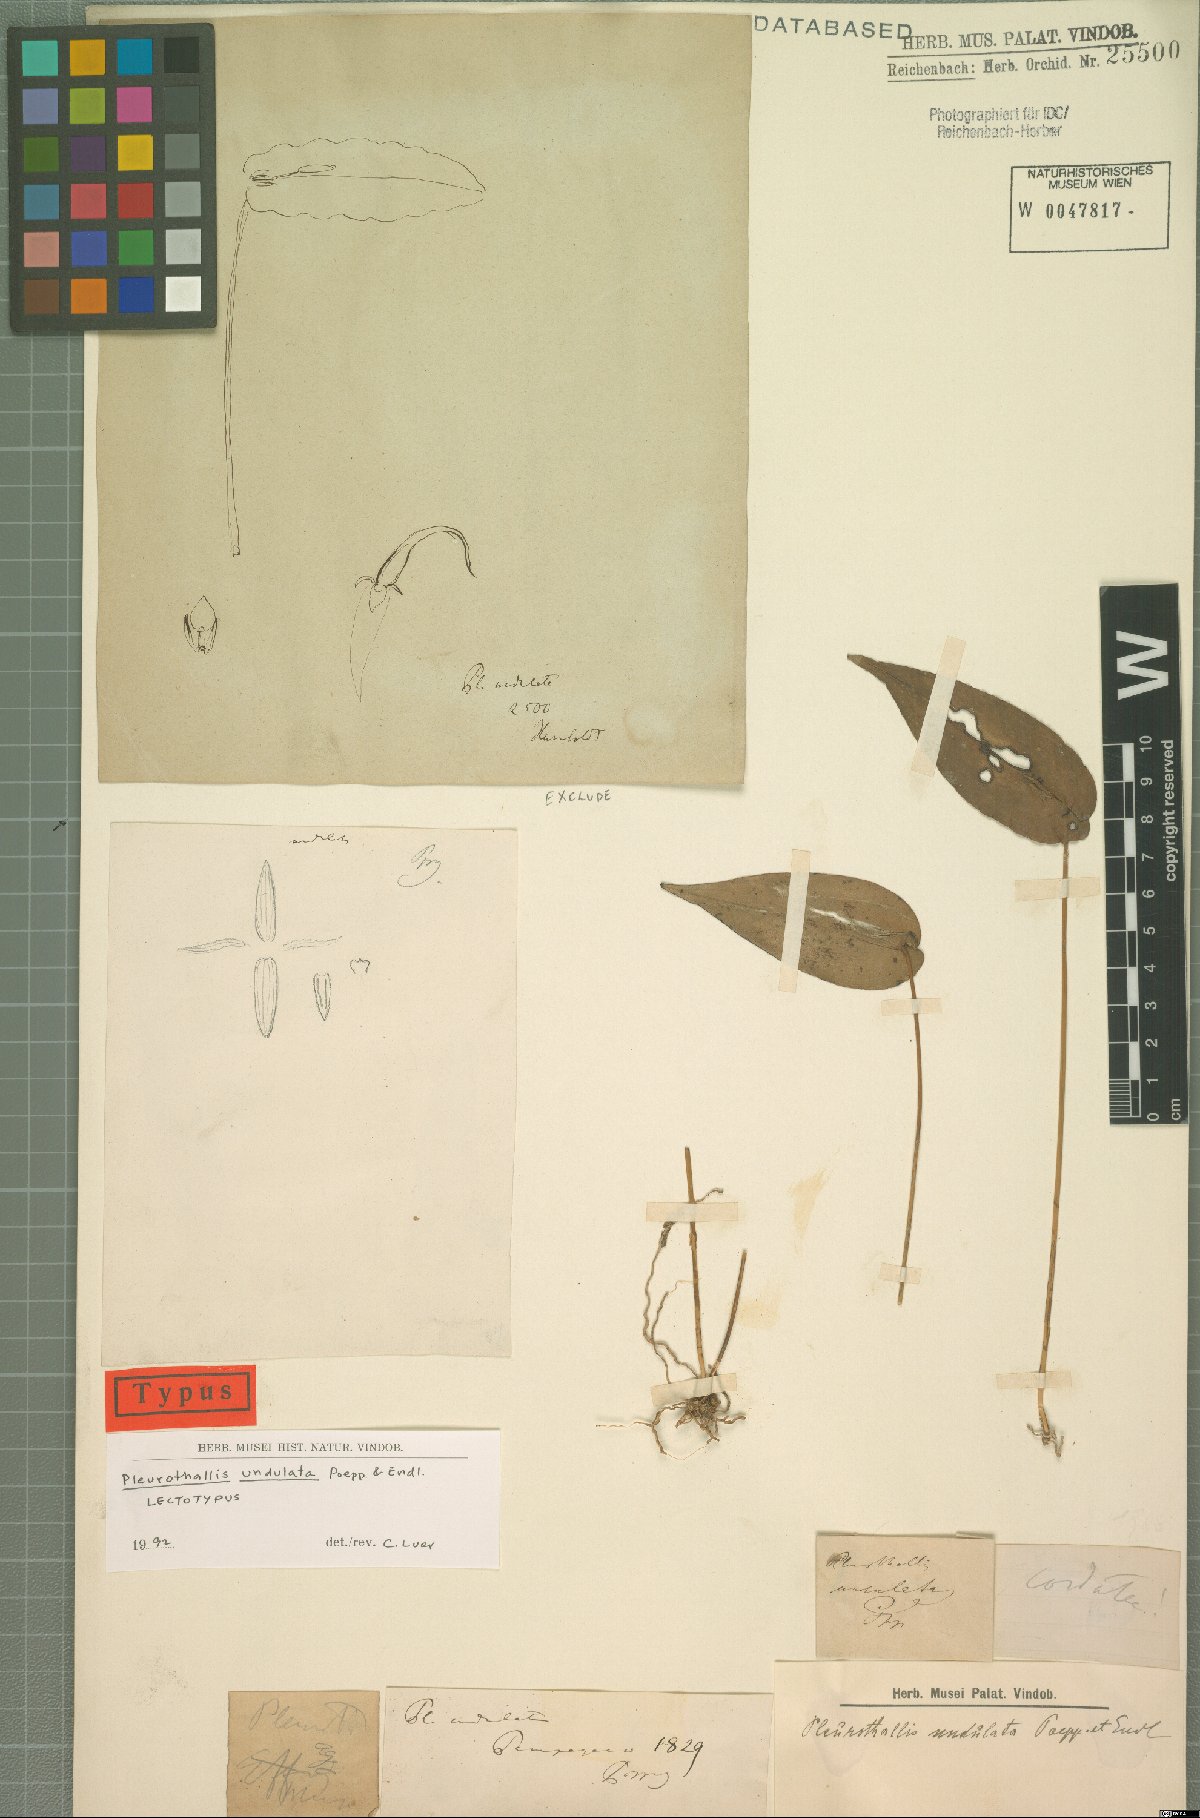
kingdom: Plantae
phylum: Tracheophyta
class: Liliopsida
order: Asparagales
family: Orchidaceae
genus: Pleurothallis
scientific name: Pleurothallis undulata
